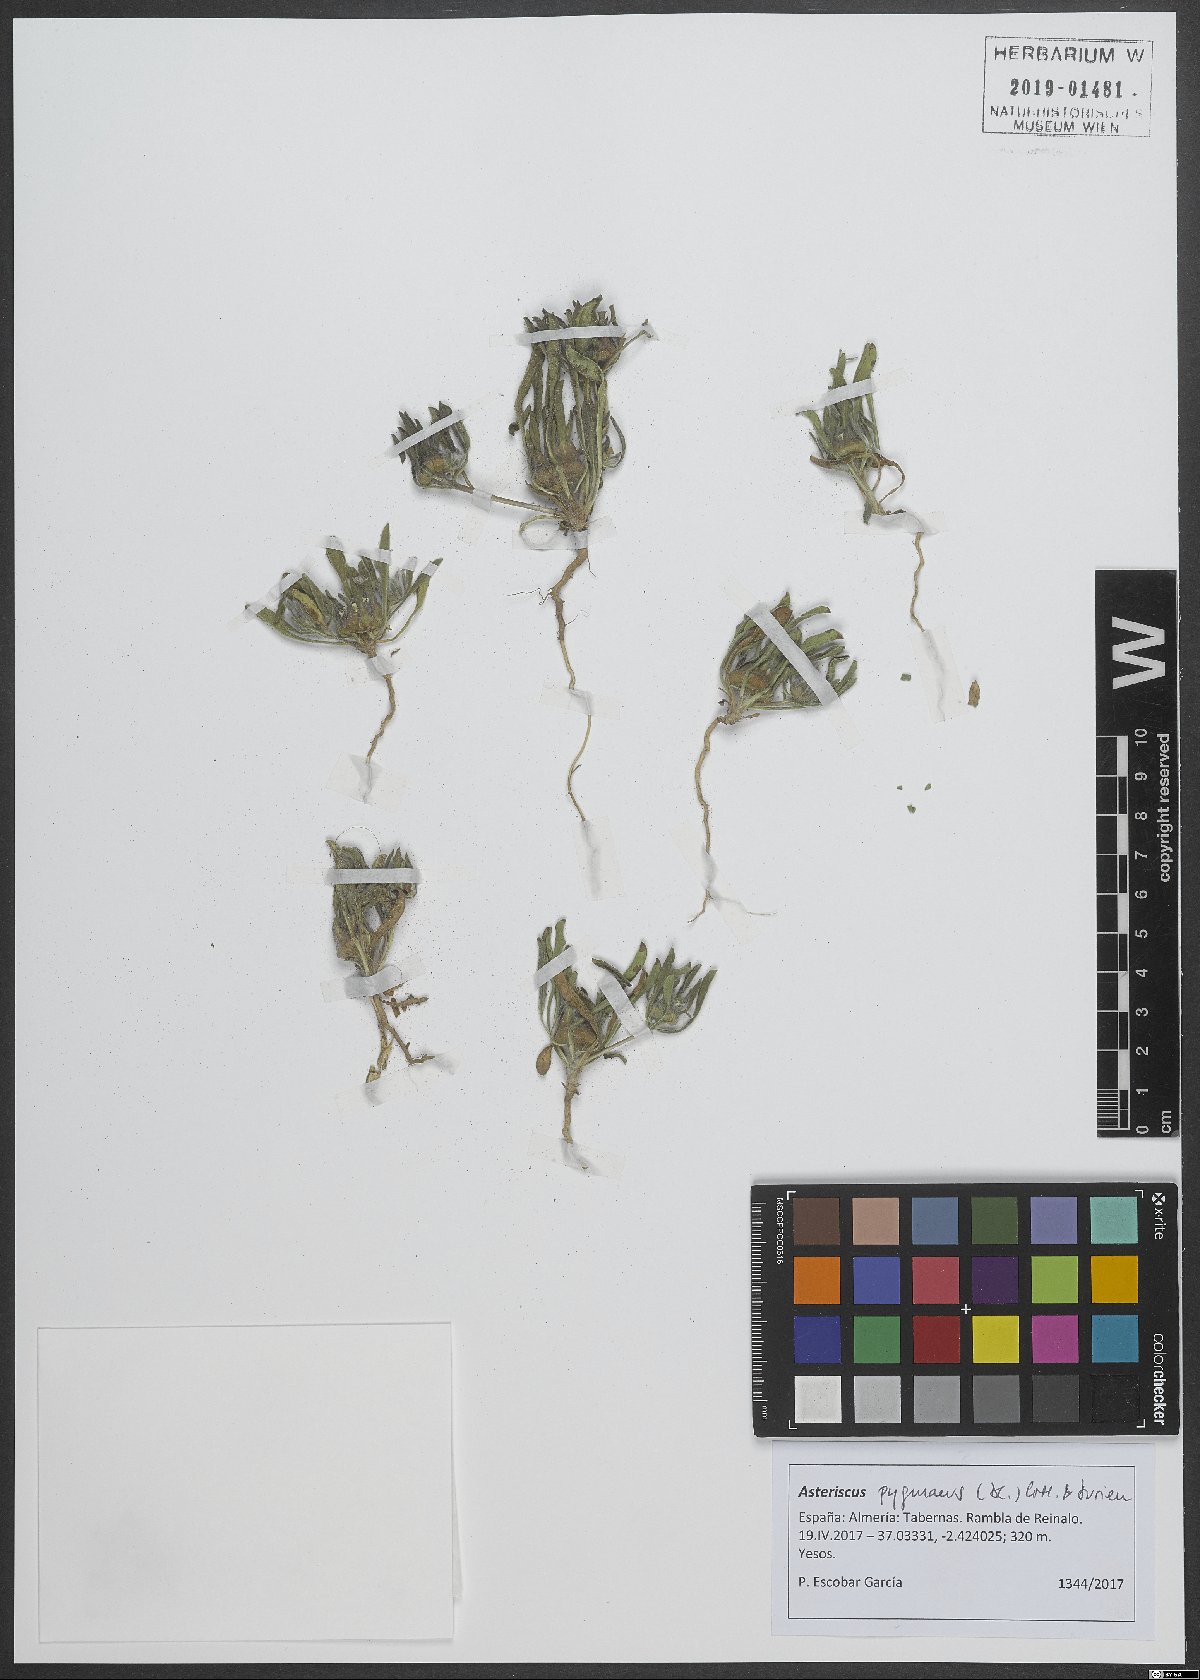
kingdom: Plantae
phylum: Tracheophyta
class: Magnoliopsida
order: Asterales
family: Asteraceae
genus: Pallenis
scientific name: Pallenis hierochuntica
